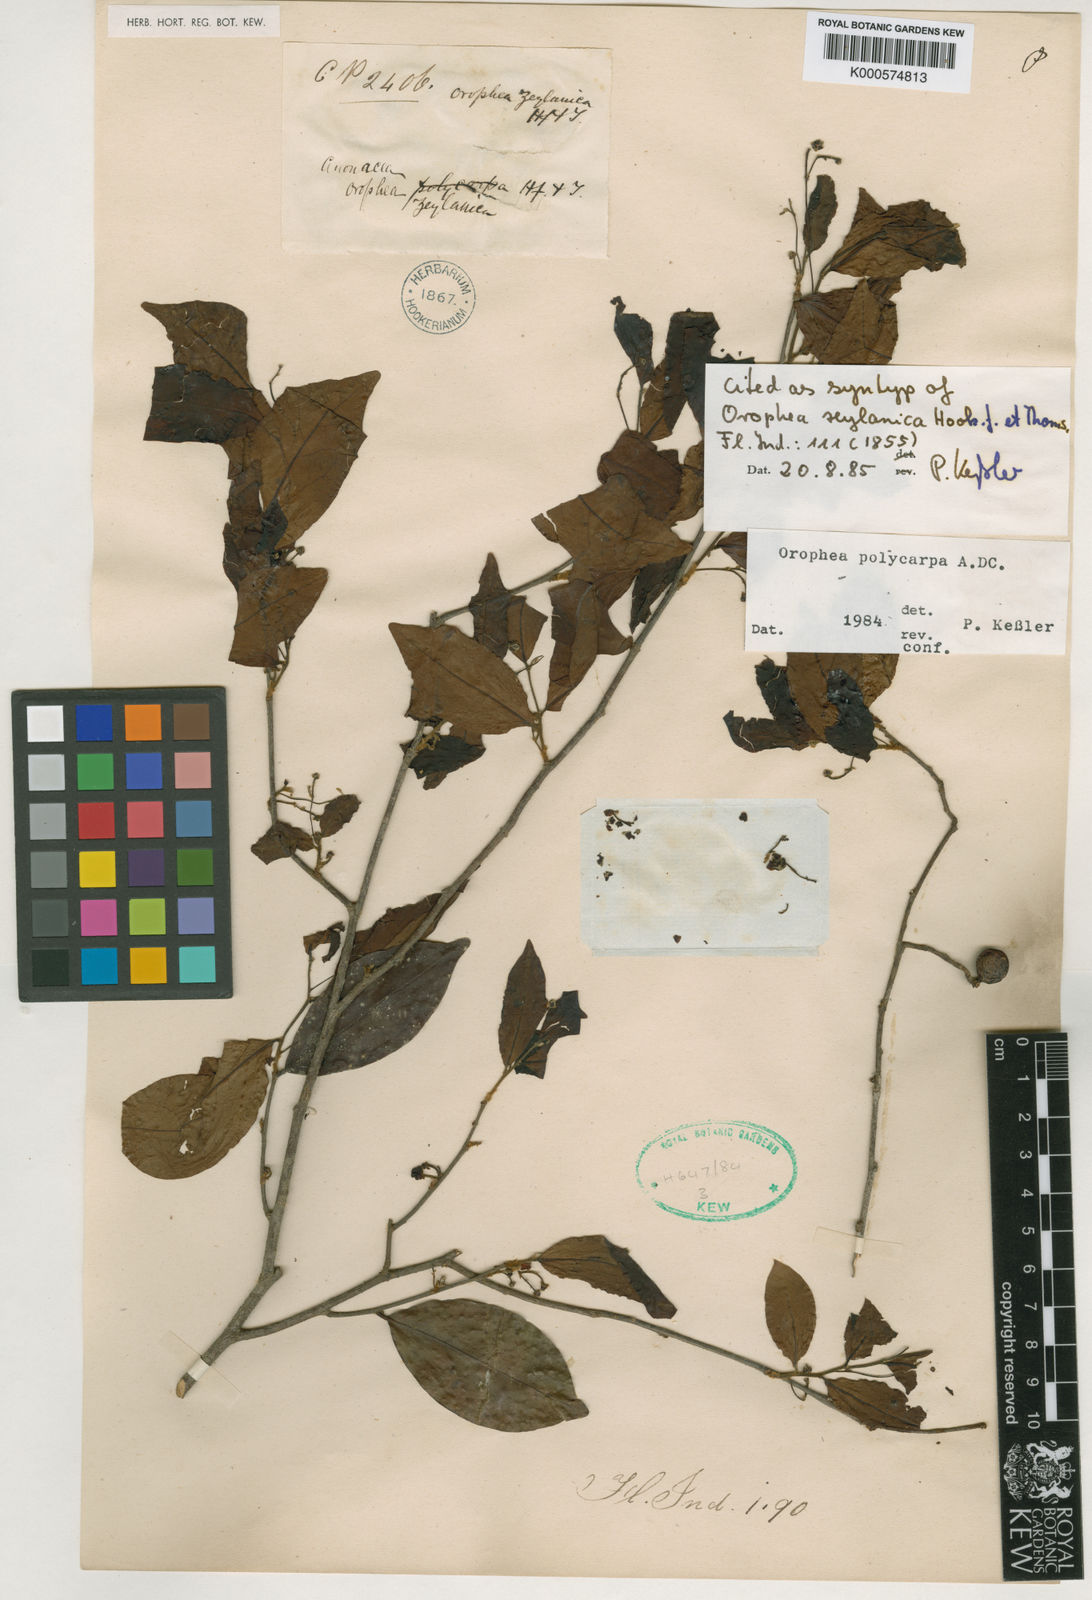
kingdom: Plantae
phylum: Tracheophyta
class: Magnoliopsida
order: Magnoliales
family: Annonaceae
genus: Orophea
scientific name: Orophea zeylanica
